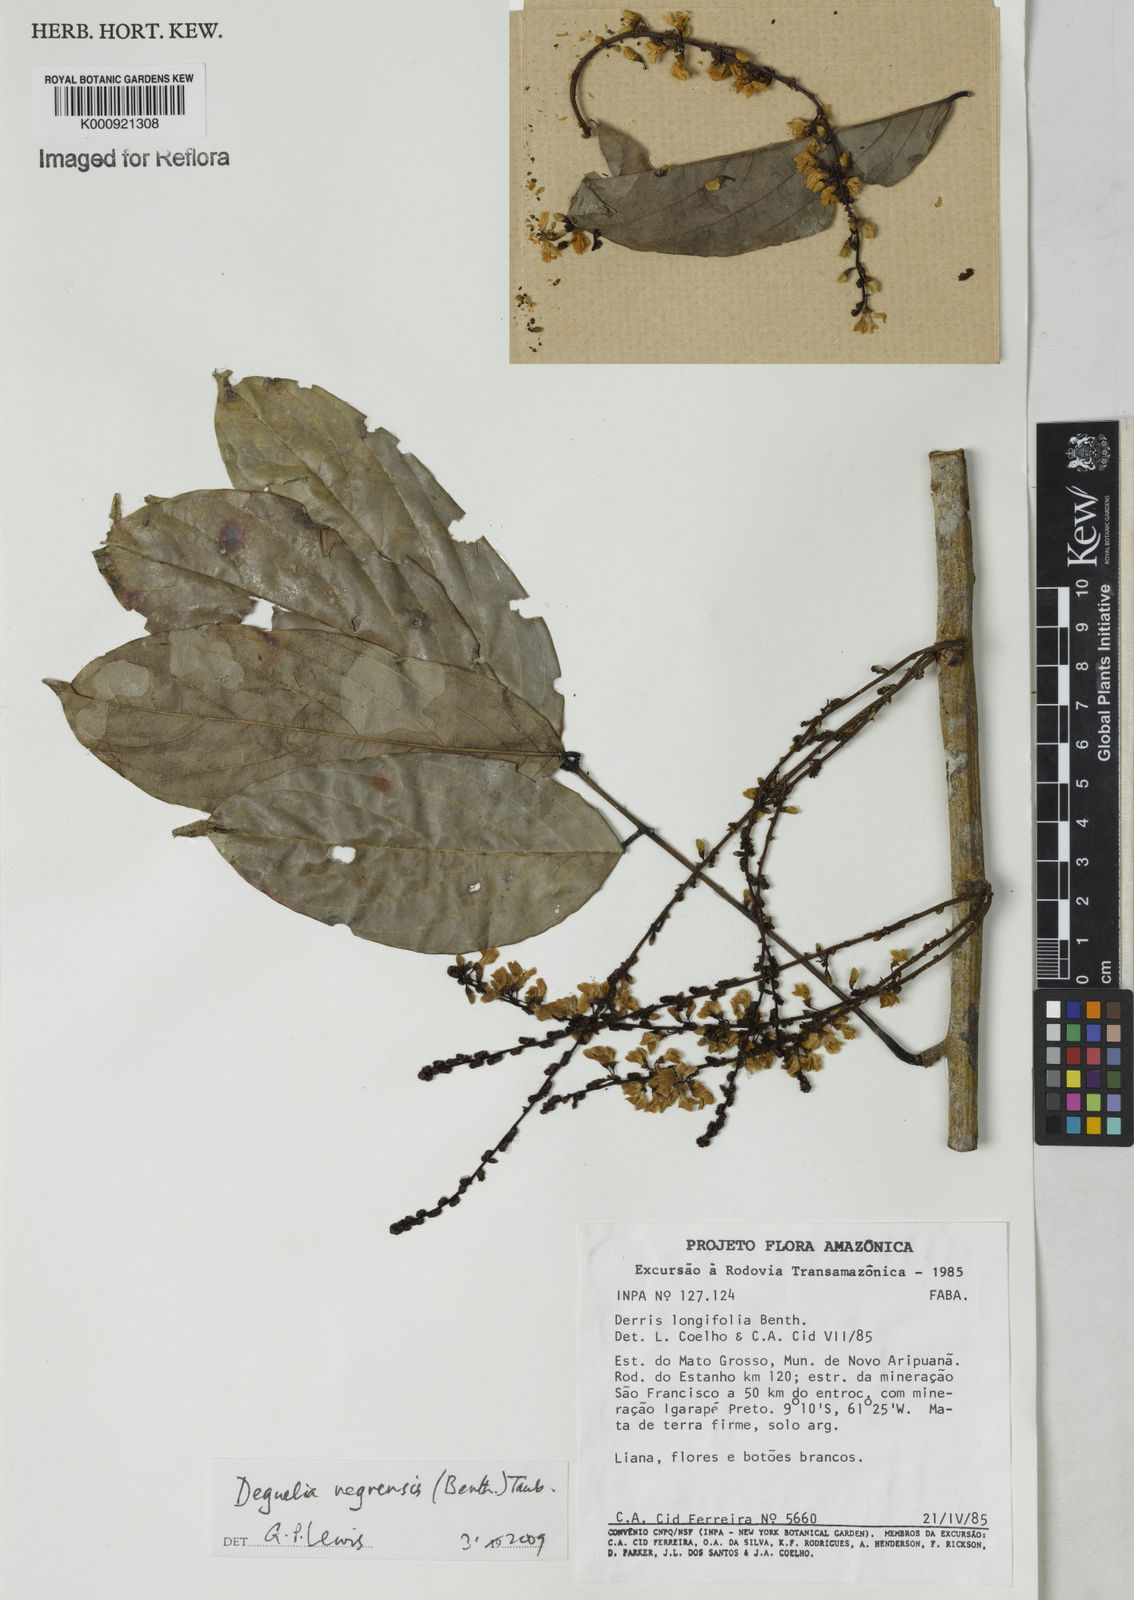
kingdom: Plantae
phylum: Tracheophyta
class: Magnoliopsida
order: Fabales
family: Fabaceae
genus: Deguelia
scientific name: Deguelia negrensis
